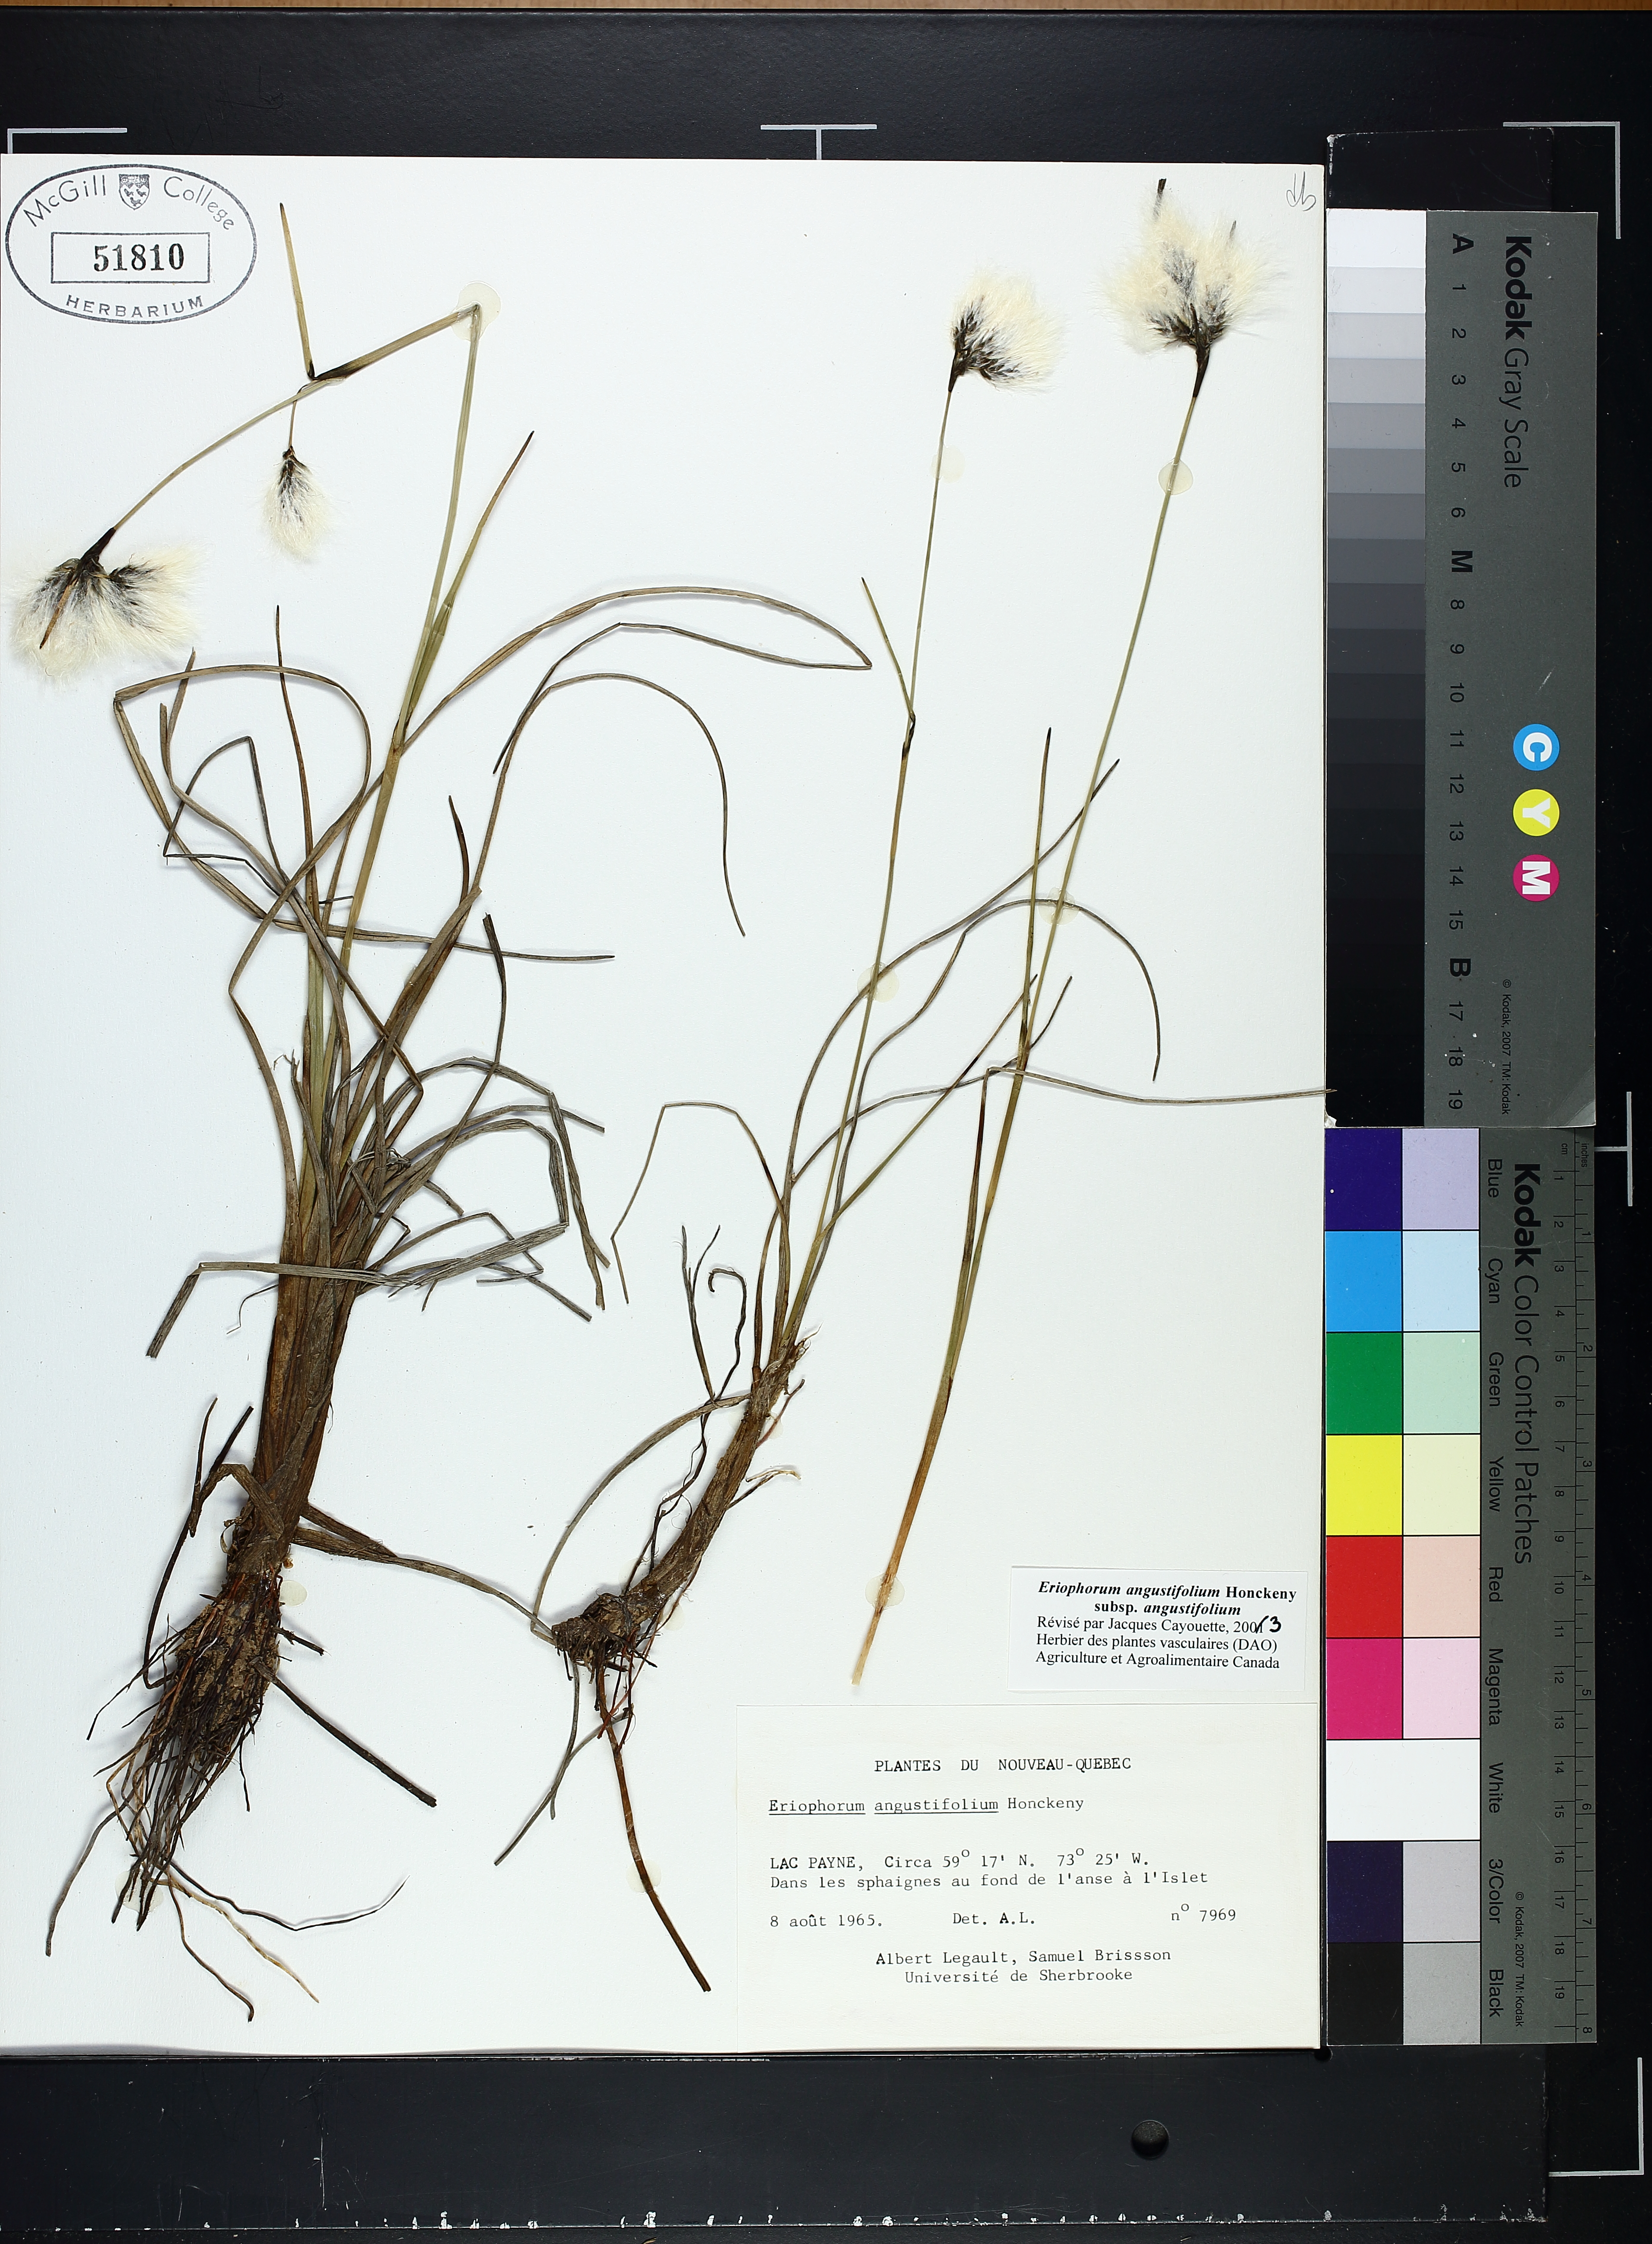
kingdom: Plantae
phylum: Tracheophyta
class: Liliopsida
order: Poales
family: Cyperaceae
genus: Eriophorum
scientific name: Eriophorum triste
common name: Tall cottongrass
